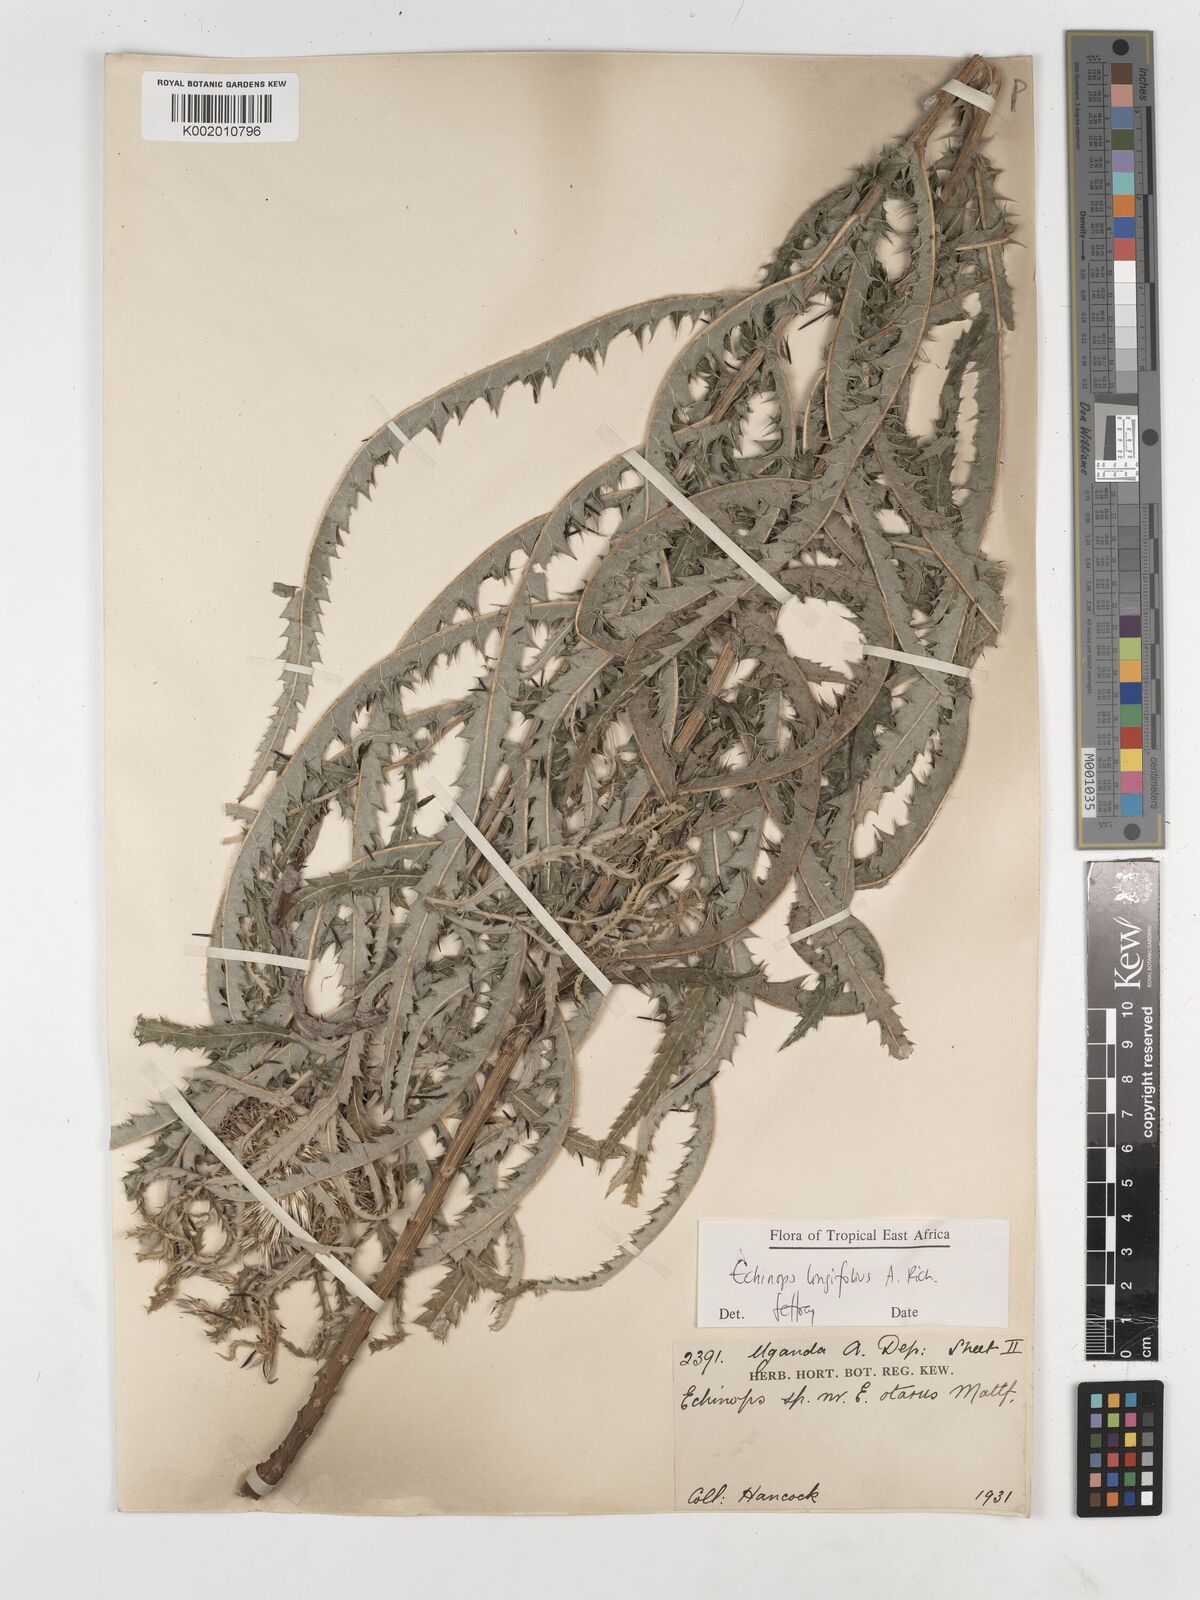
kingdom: Plantae
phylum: Tracheophyta
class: Magnoliopsida
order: Asterales
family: Asteraceae
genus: Echinops
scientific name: Echinops longifolius
